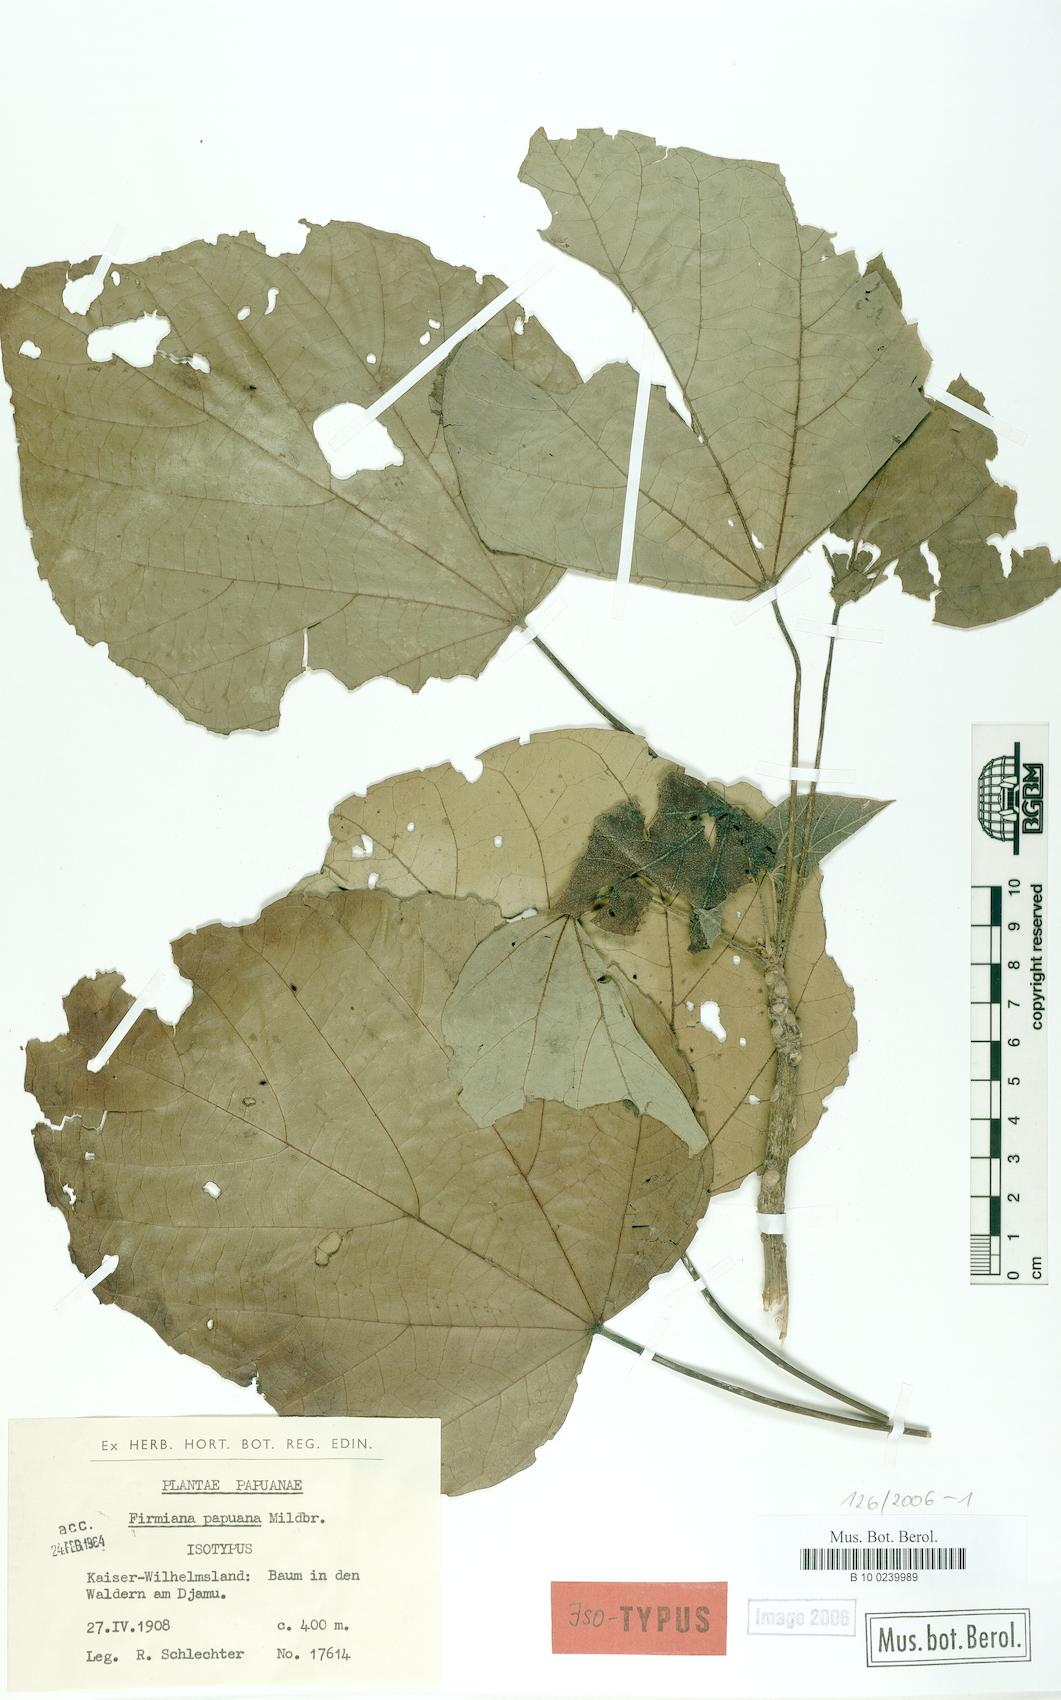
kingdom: Plantae
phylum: Tracheophyta
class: Magnoliopsida
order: Malvales
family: Malvaceae
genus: Firmiana
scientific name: Firmiana
